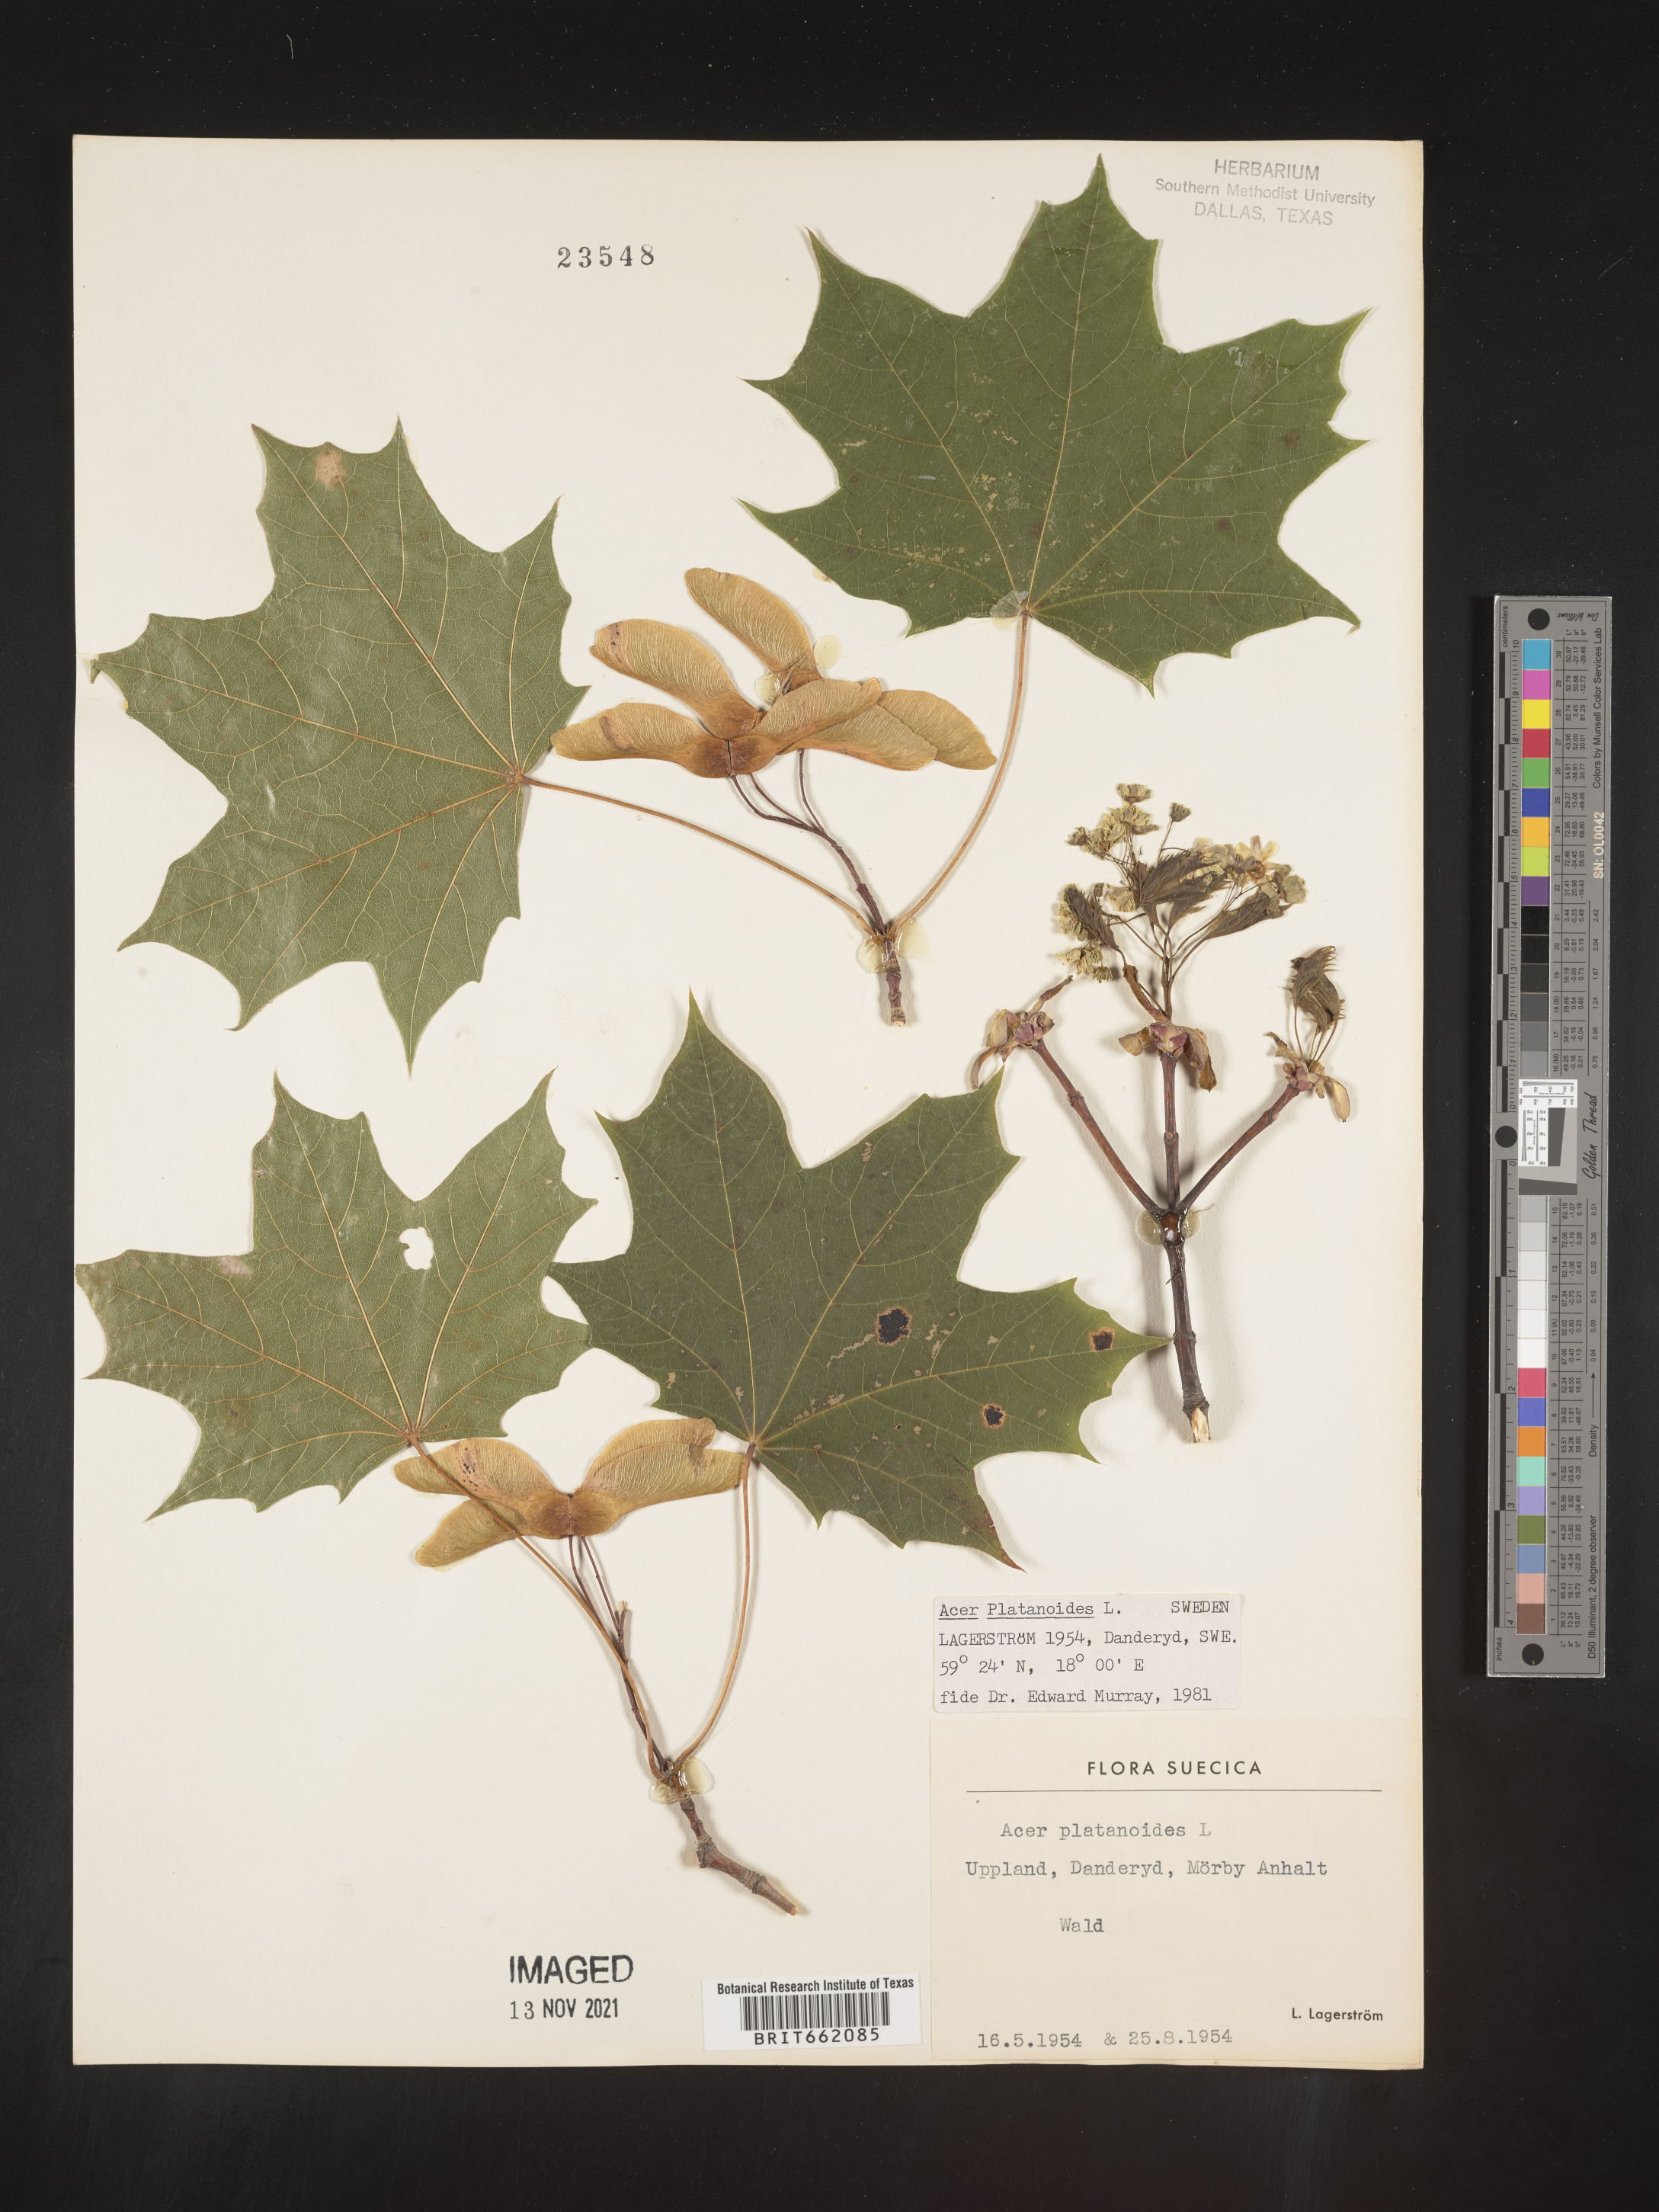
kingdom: Plantae
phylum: Tracheophyta
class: Magnoliopsida
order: Sapindales
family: Sapindaceae
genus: Acer
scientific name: Acer
